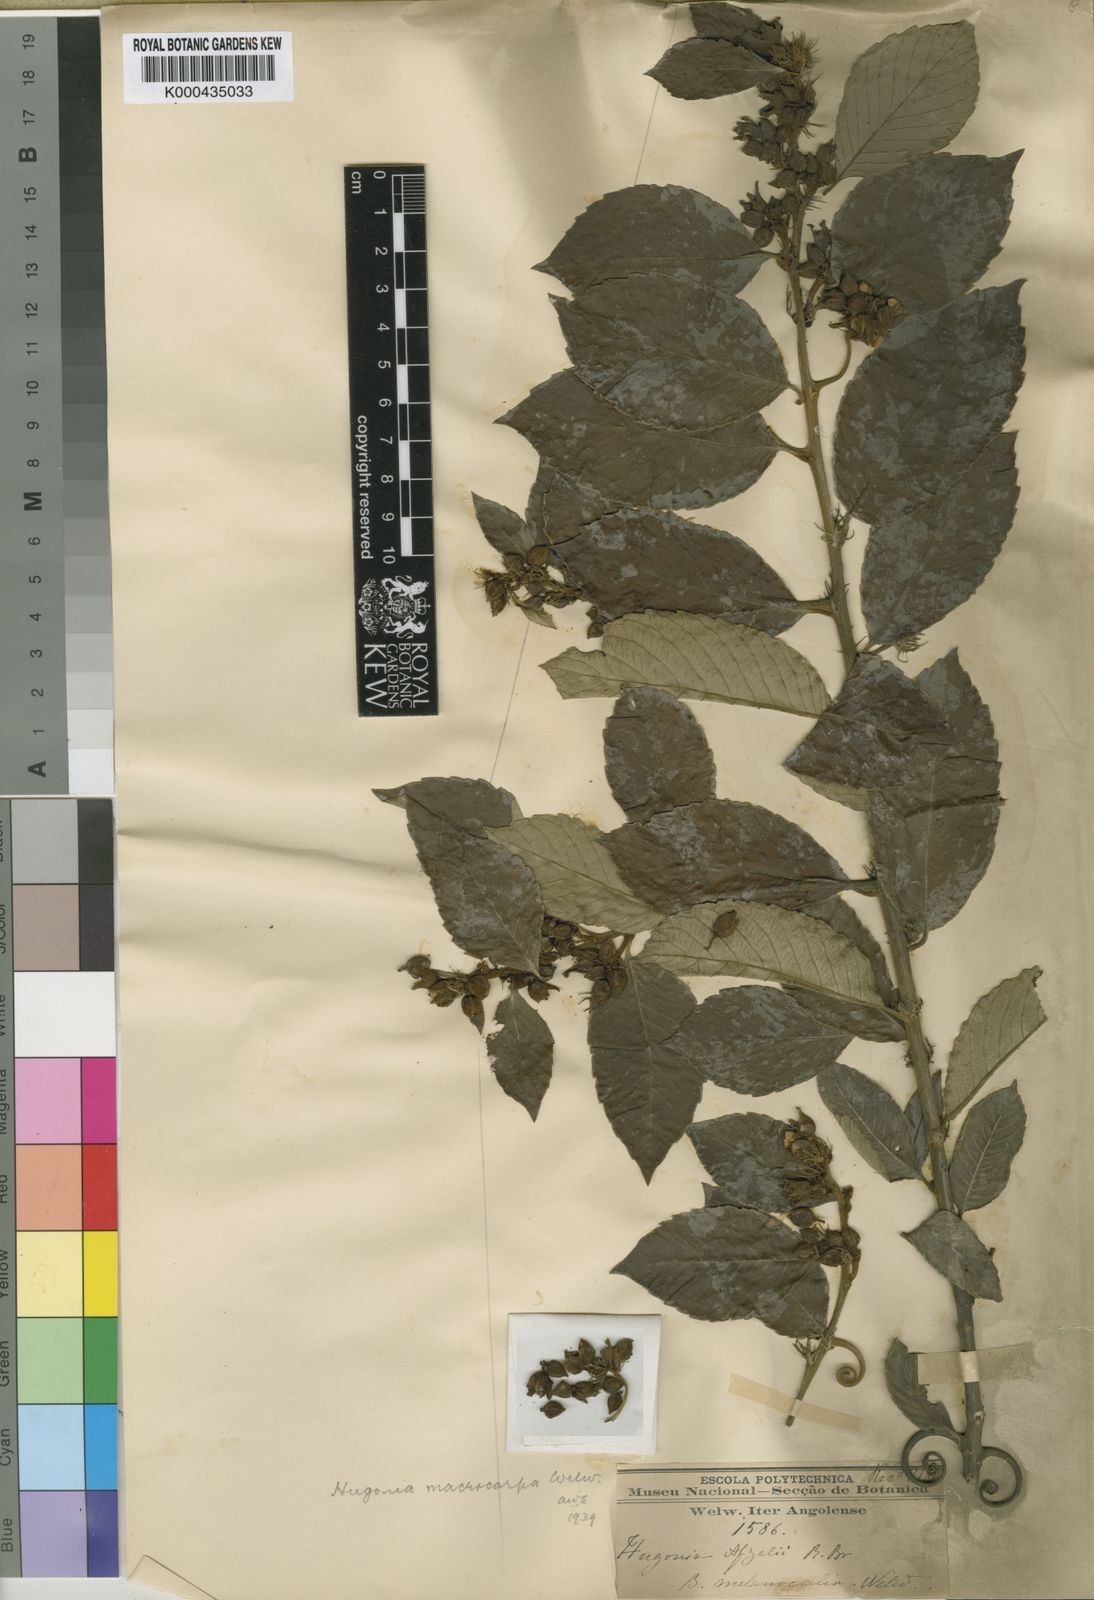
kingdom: Plantae
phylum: Tracheophyta
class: Magnoliopsida
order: Malpighiales
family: Linaceae
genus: Hugonia
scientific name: Hugonia macrocarpa
